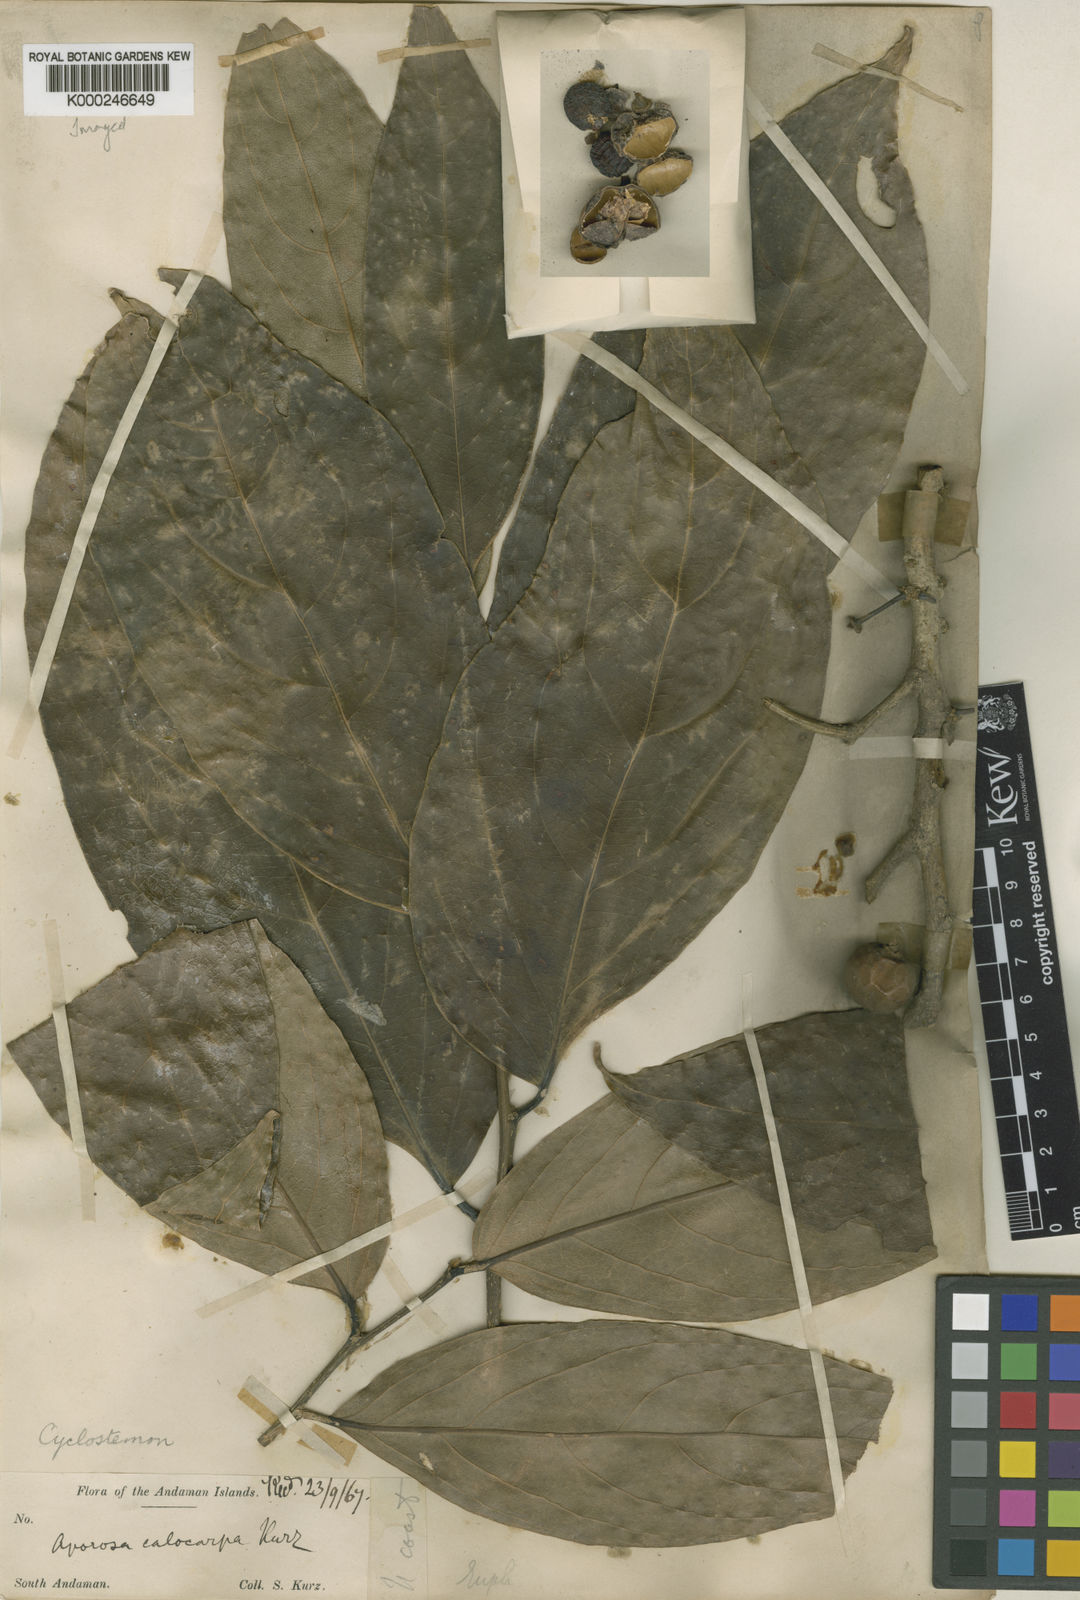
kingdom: Plantae
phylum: Tracheophyta
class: Magnoliopsida
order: Malpighiales
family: Putranjivaceae
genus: Drypetes
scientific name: Drypetes longifolia
